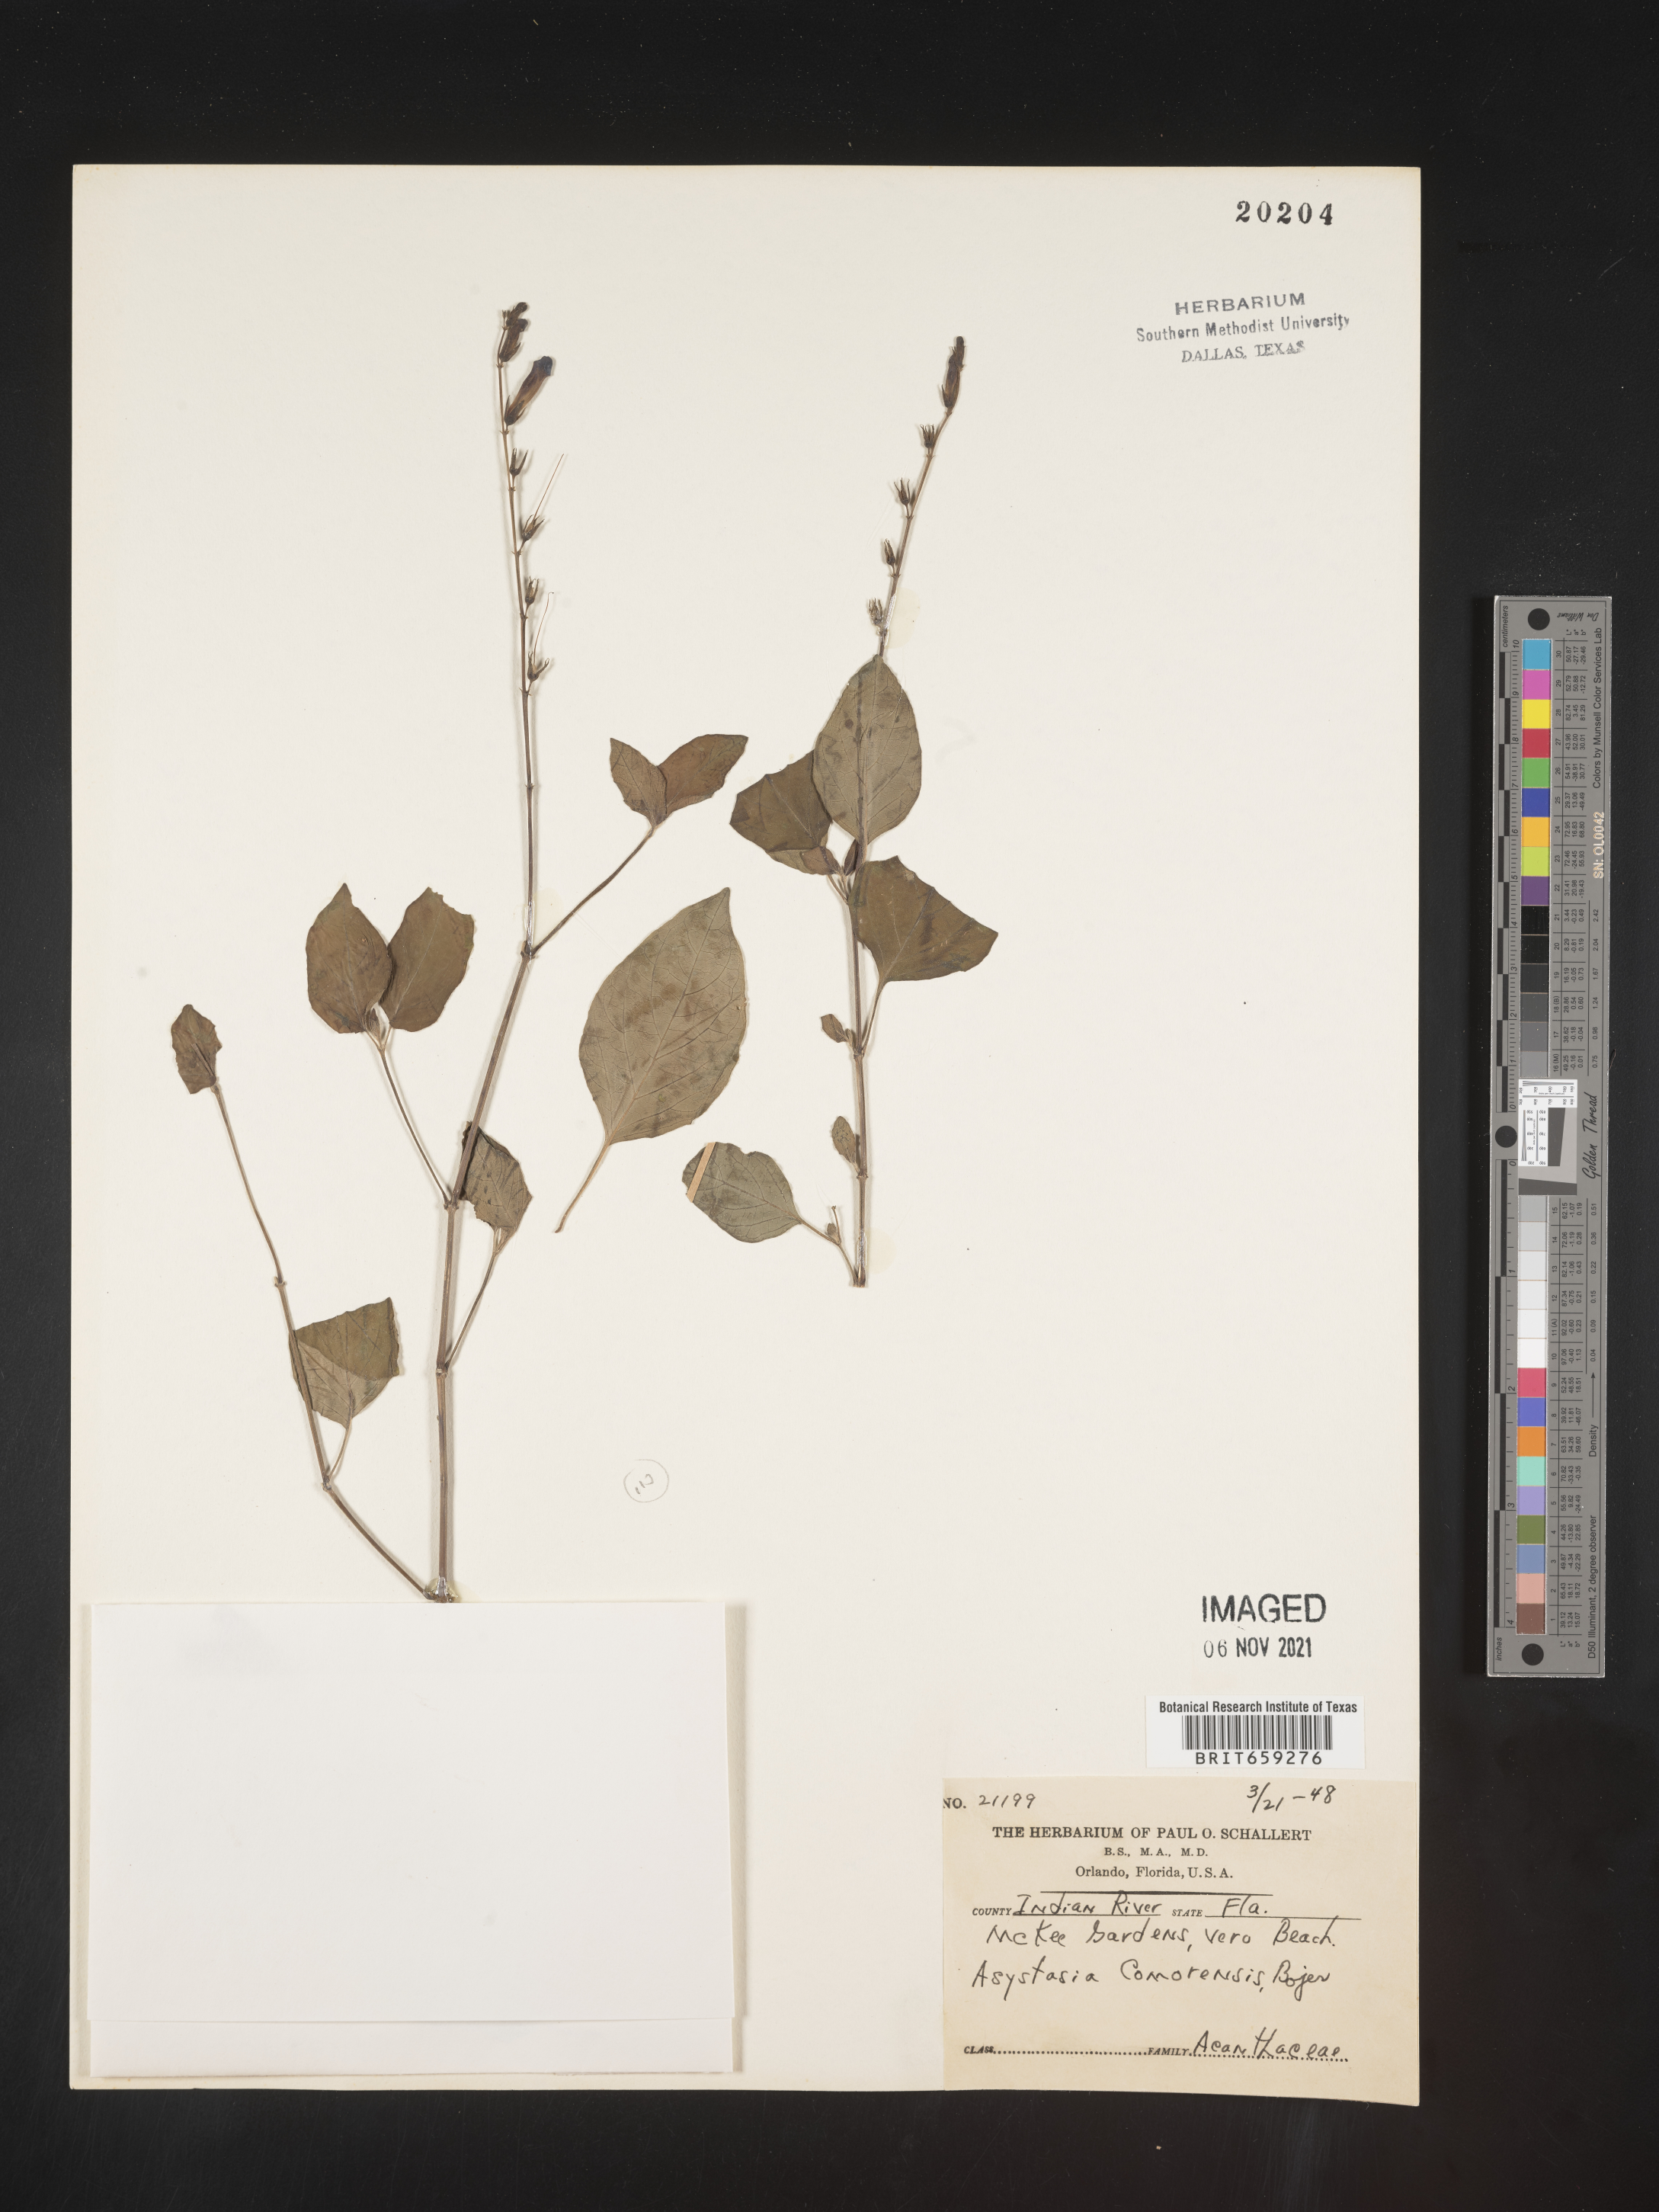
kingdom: Plantae
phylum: Tracheophyta
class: Magnoliopsida
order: Lamiales
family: Acanthaceae
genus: Asystasia
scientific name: Asystasia
